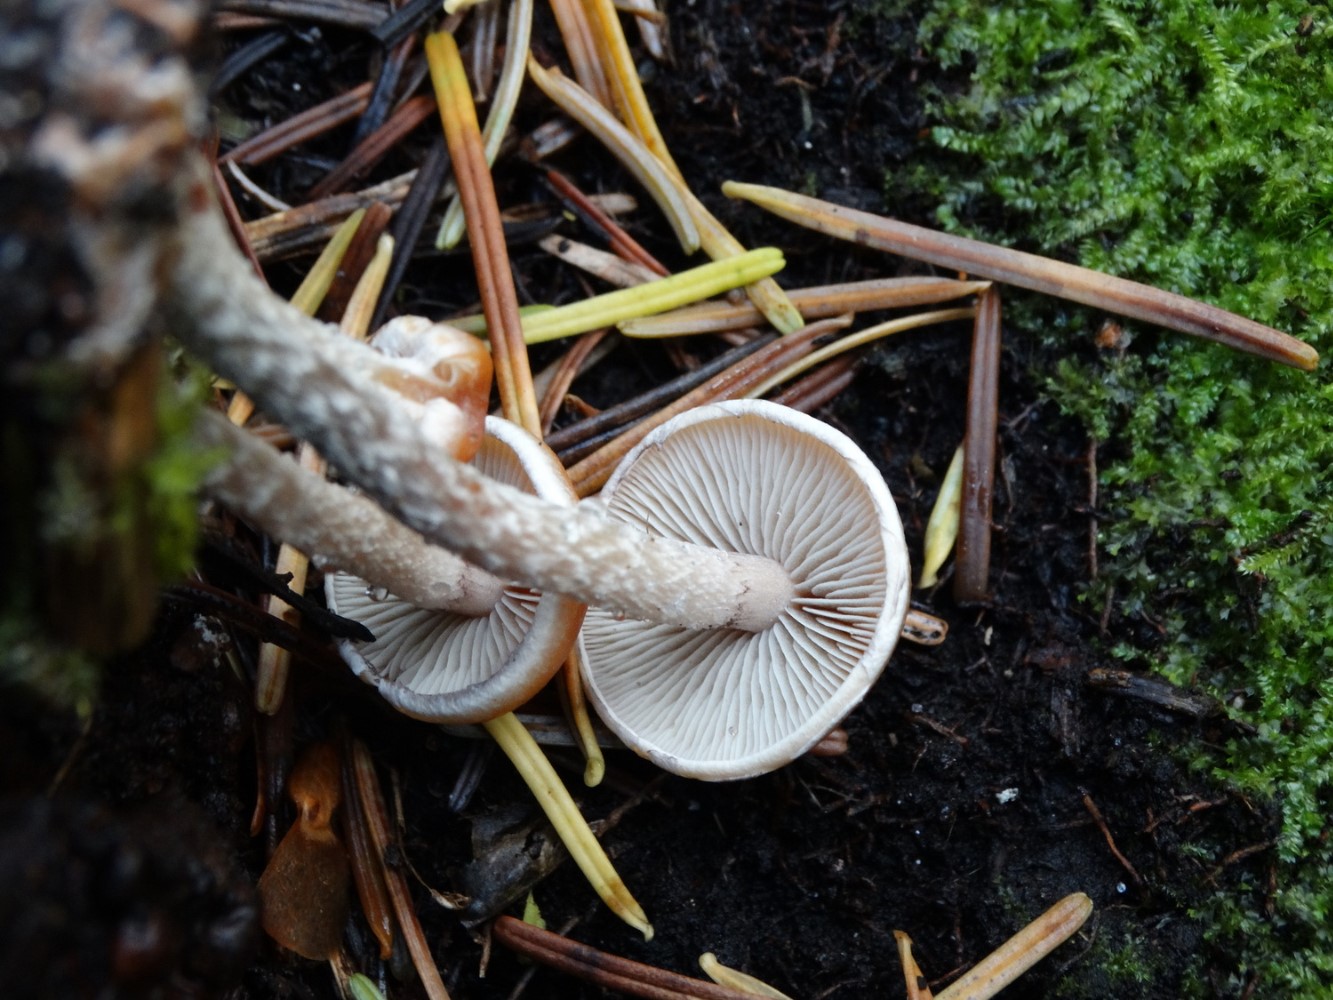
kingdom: Fungi
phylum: Basidiomycota
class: Agaricomycetes
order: Agaricales
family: Strophariaceae
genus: Hypholoma
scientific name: Hypholoma marginatum
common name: enlig svovlhat
